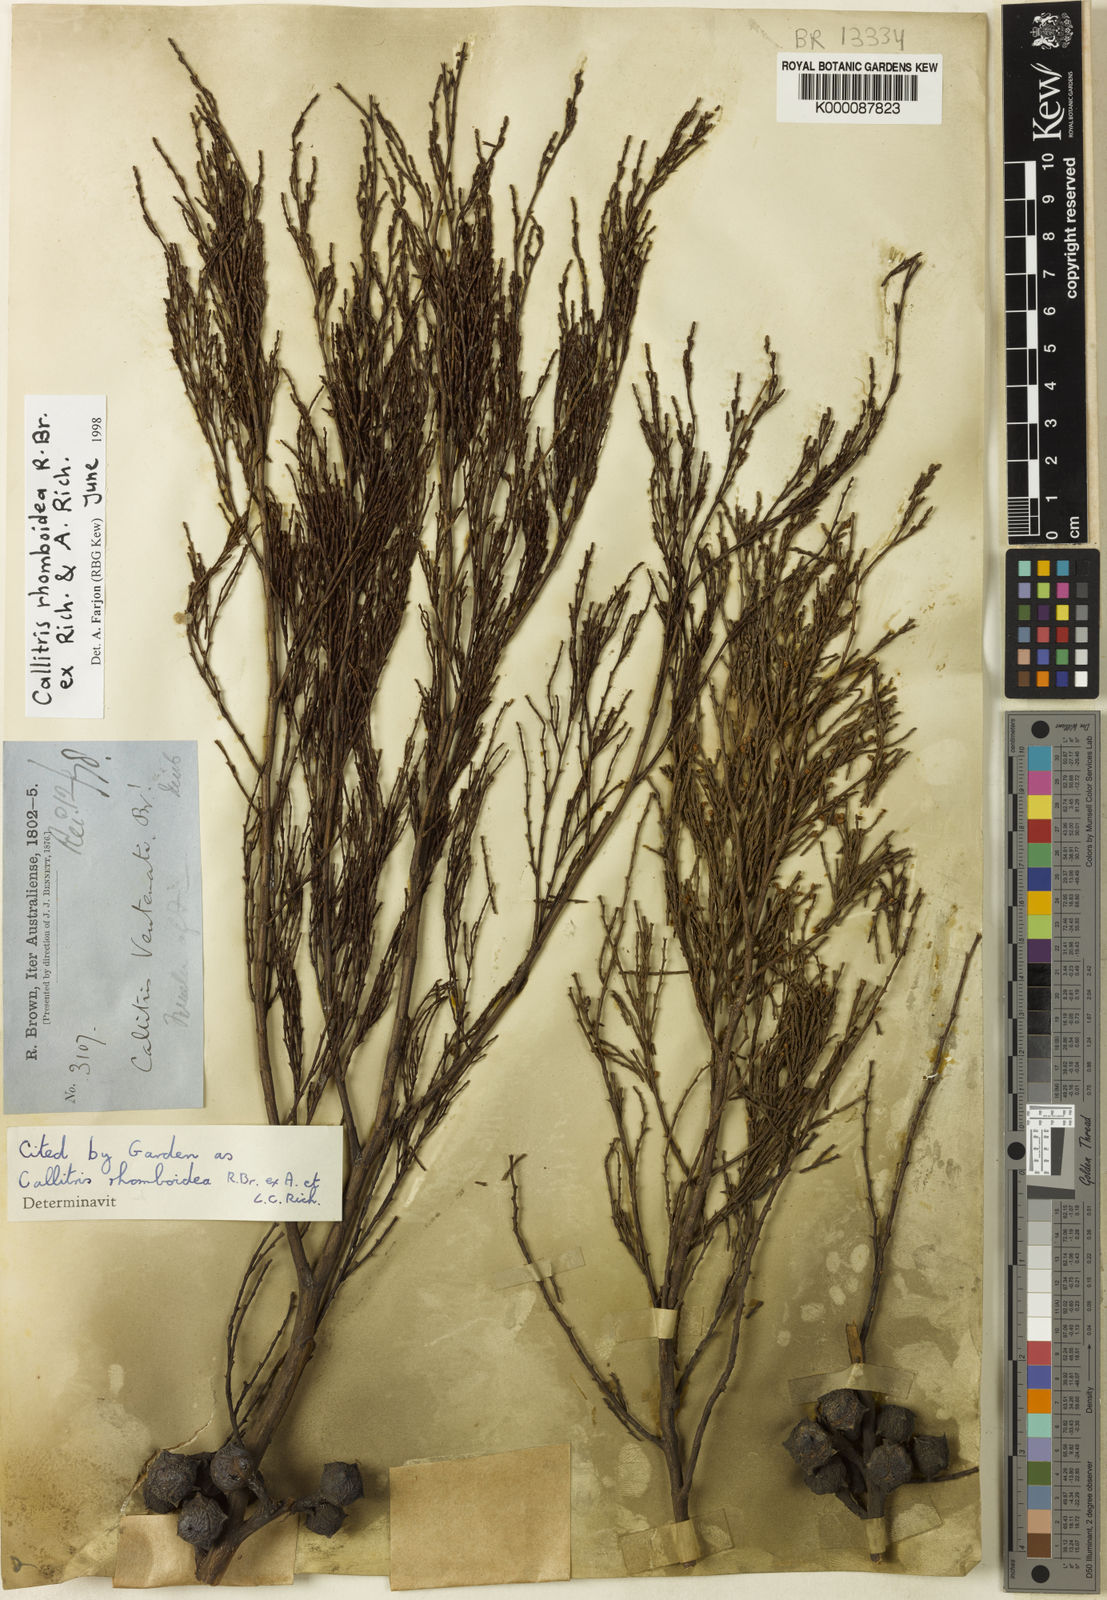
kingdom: Plantae
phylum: Tracheophyta
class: Pinopsida
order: Pinales
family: Cupressaceae
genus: Callitris
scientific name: Callitris rhomboidea
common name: Illawara mountain pine
